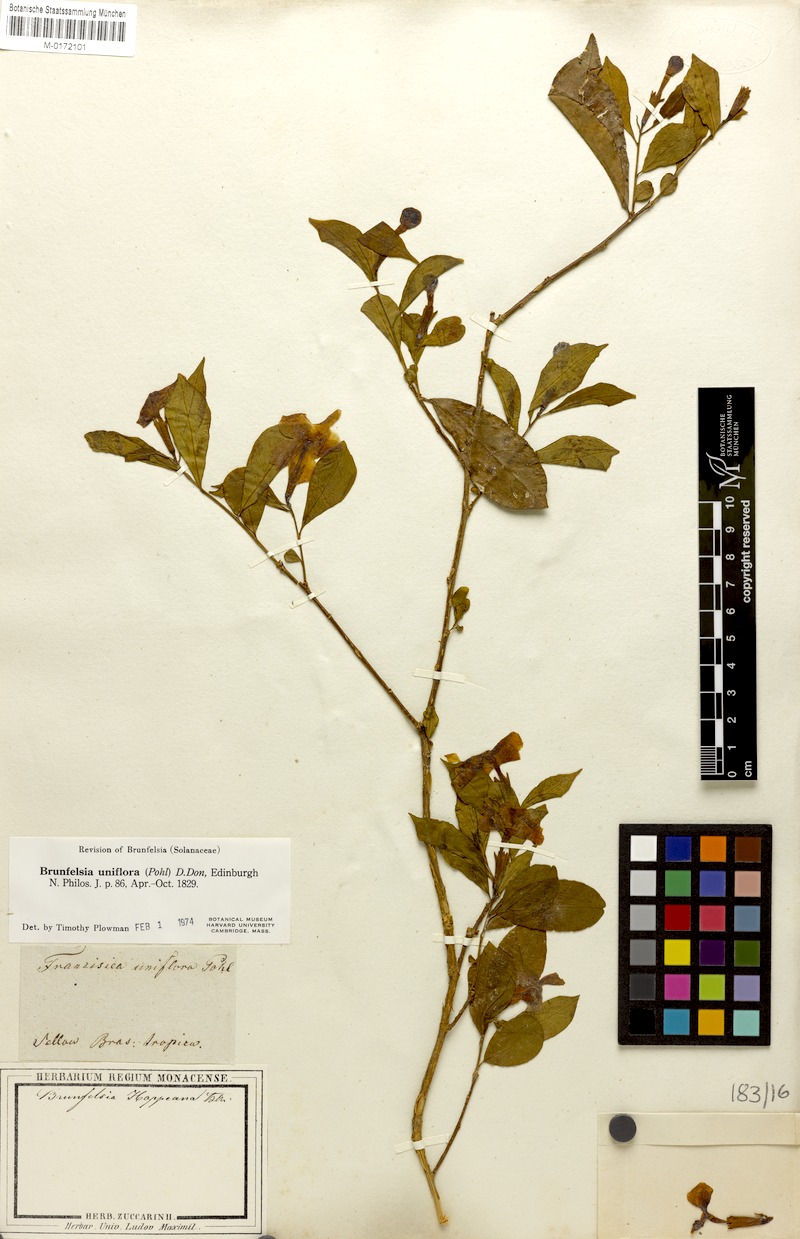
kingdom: Plantae
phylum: Tracheophyta
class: Magnoliopsida
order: Solanales
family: Solanaceae
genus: Brunfelsia
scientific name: Brunfelsia uniflora
